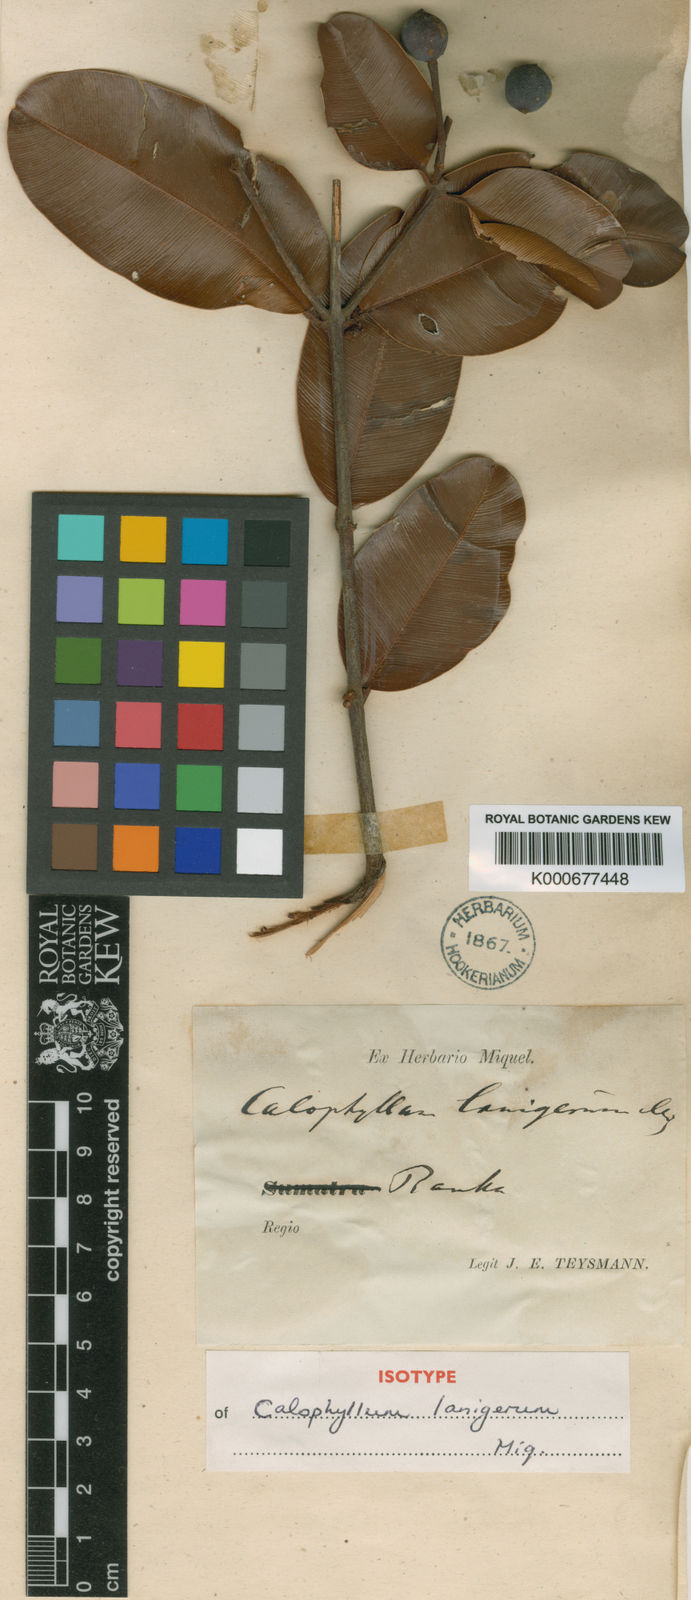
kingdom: Plantae
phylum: Tracheophyta
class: Magnoliopsida
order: Malpighiales
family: Calophyllaceae
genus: Calophyllum
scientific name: Calophyllum lanigerum
